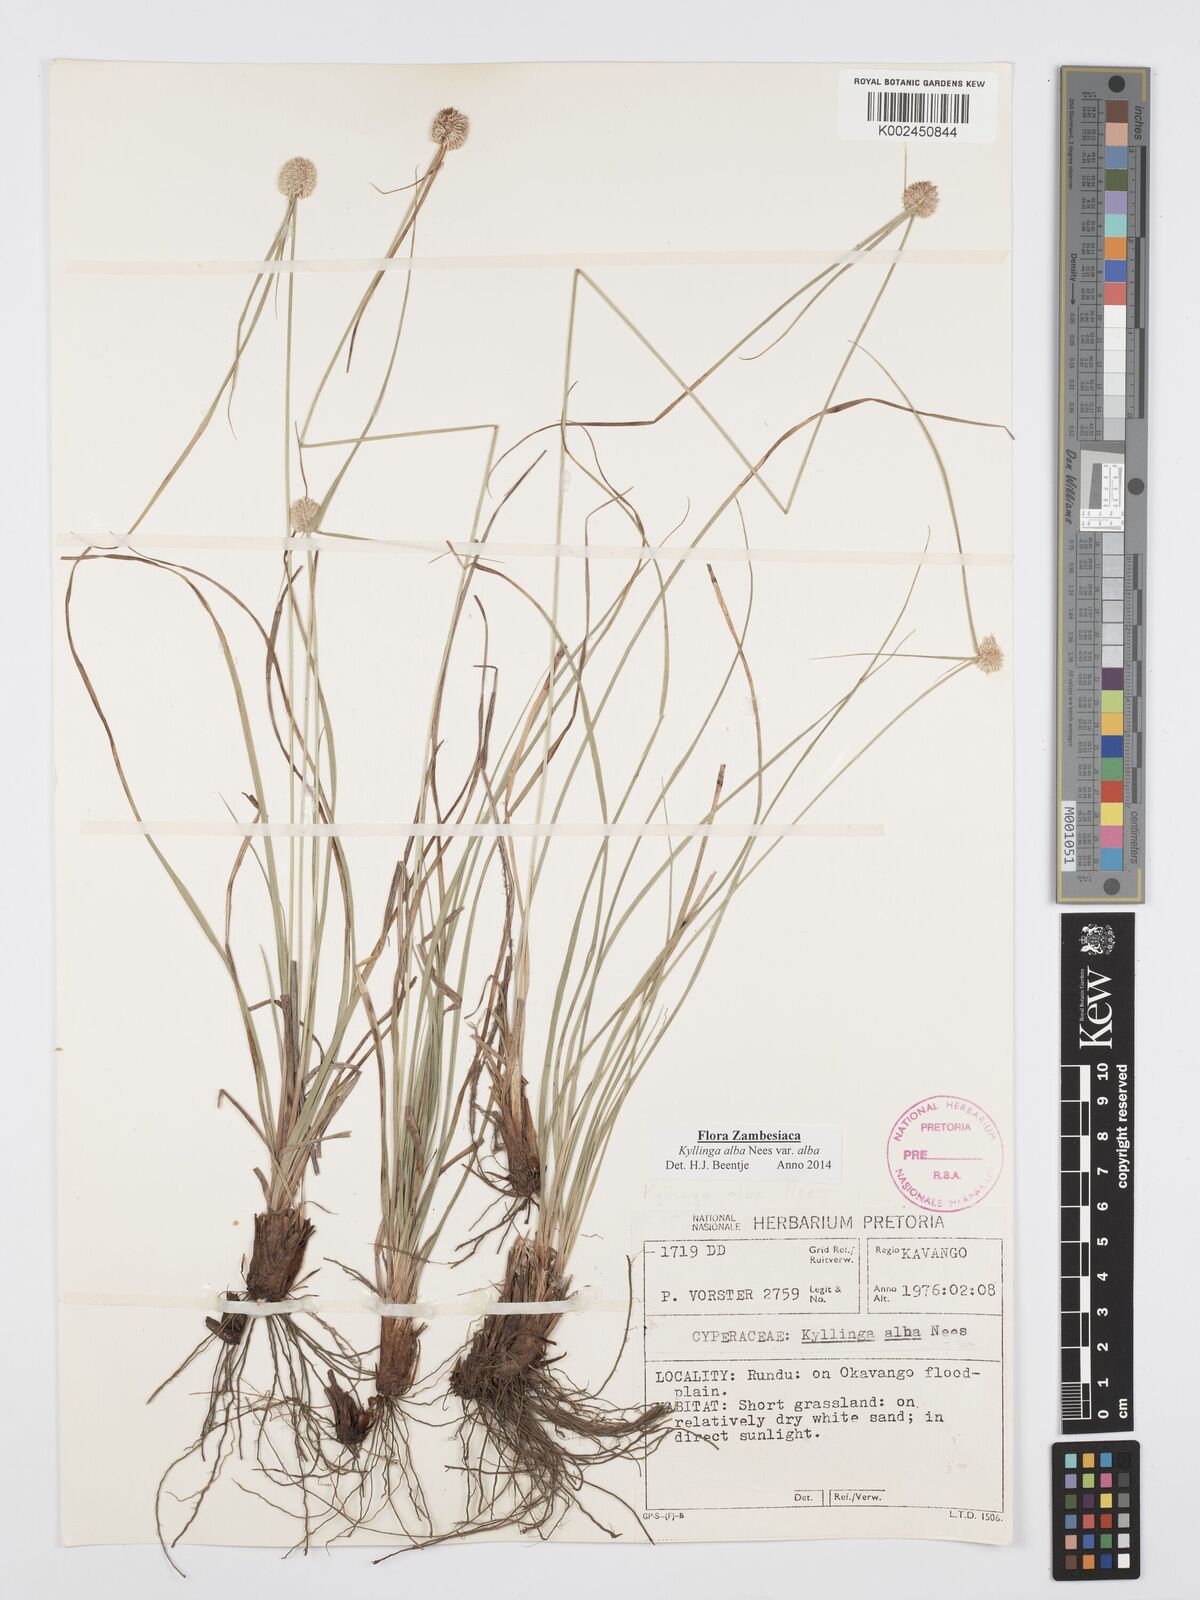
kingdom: Plantae
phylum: Tracheophyta
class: Liliopsida
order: Poales
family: Cyperaceae
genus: Cyperus
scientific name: Cyperus
